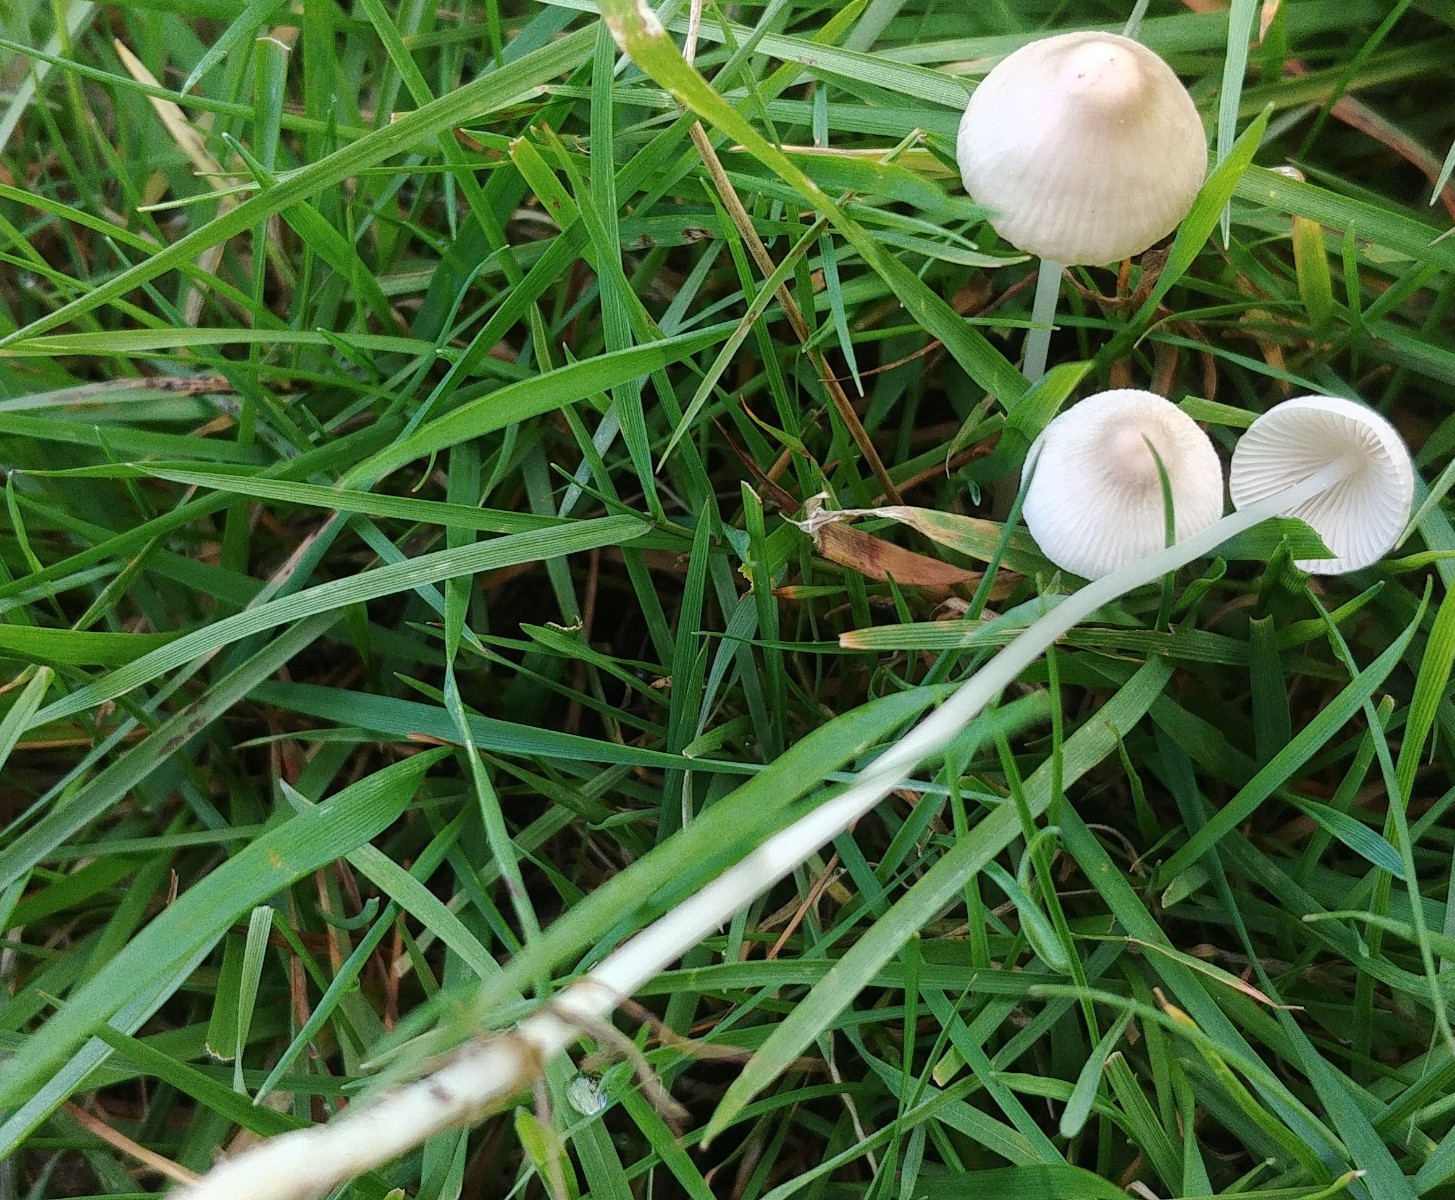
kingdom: Fungi
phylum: Basidiomycota
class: Agaricomycetes
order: Agaricales
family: Mycenaceae
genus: Mycena
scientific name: Mycena
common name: huesvamp
